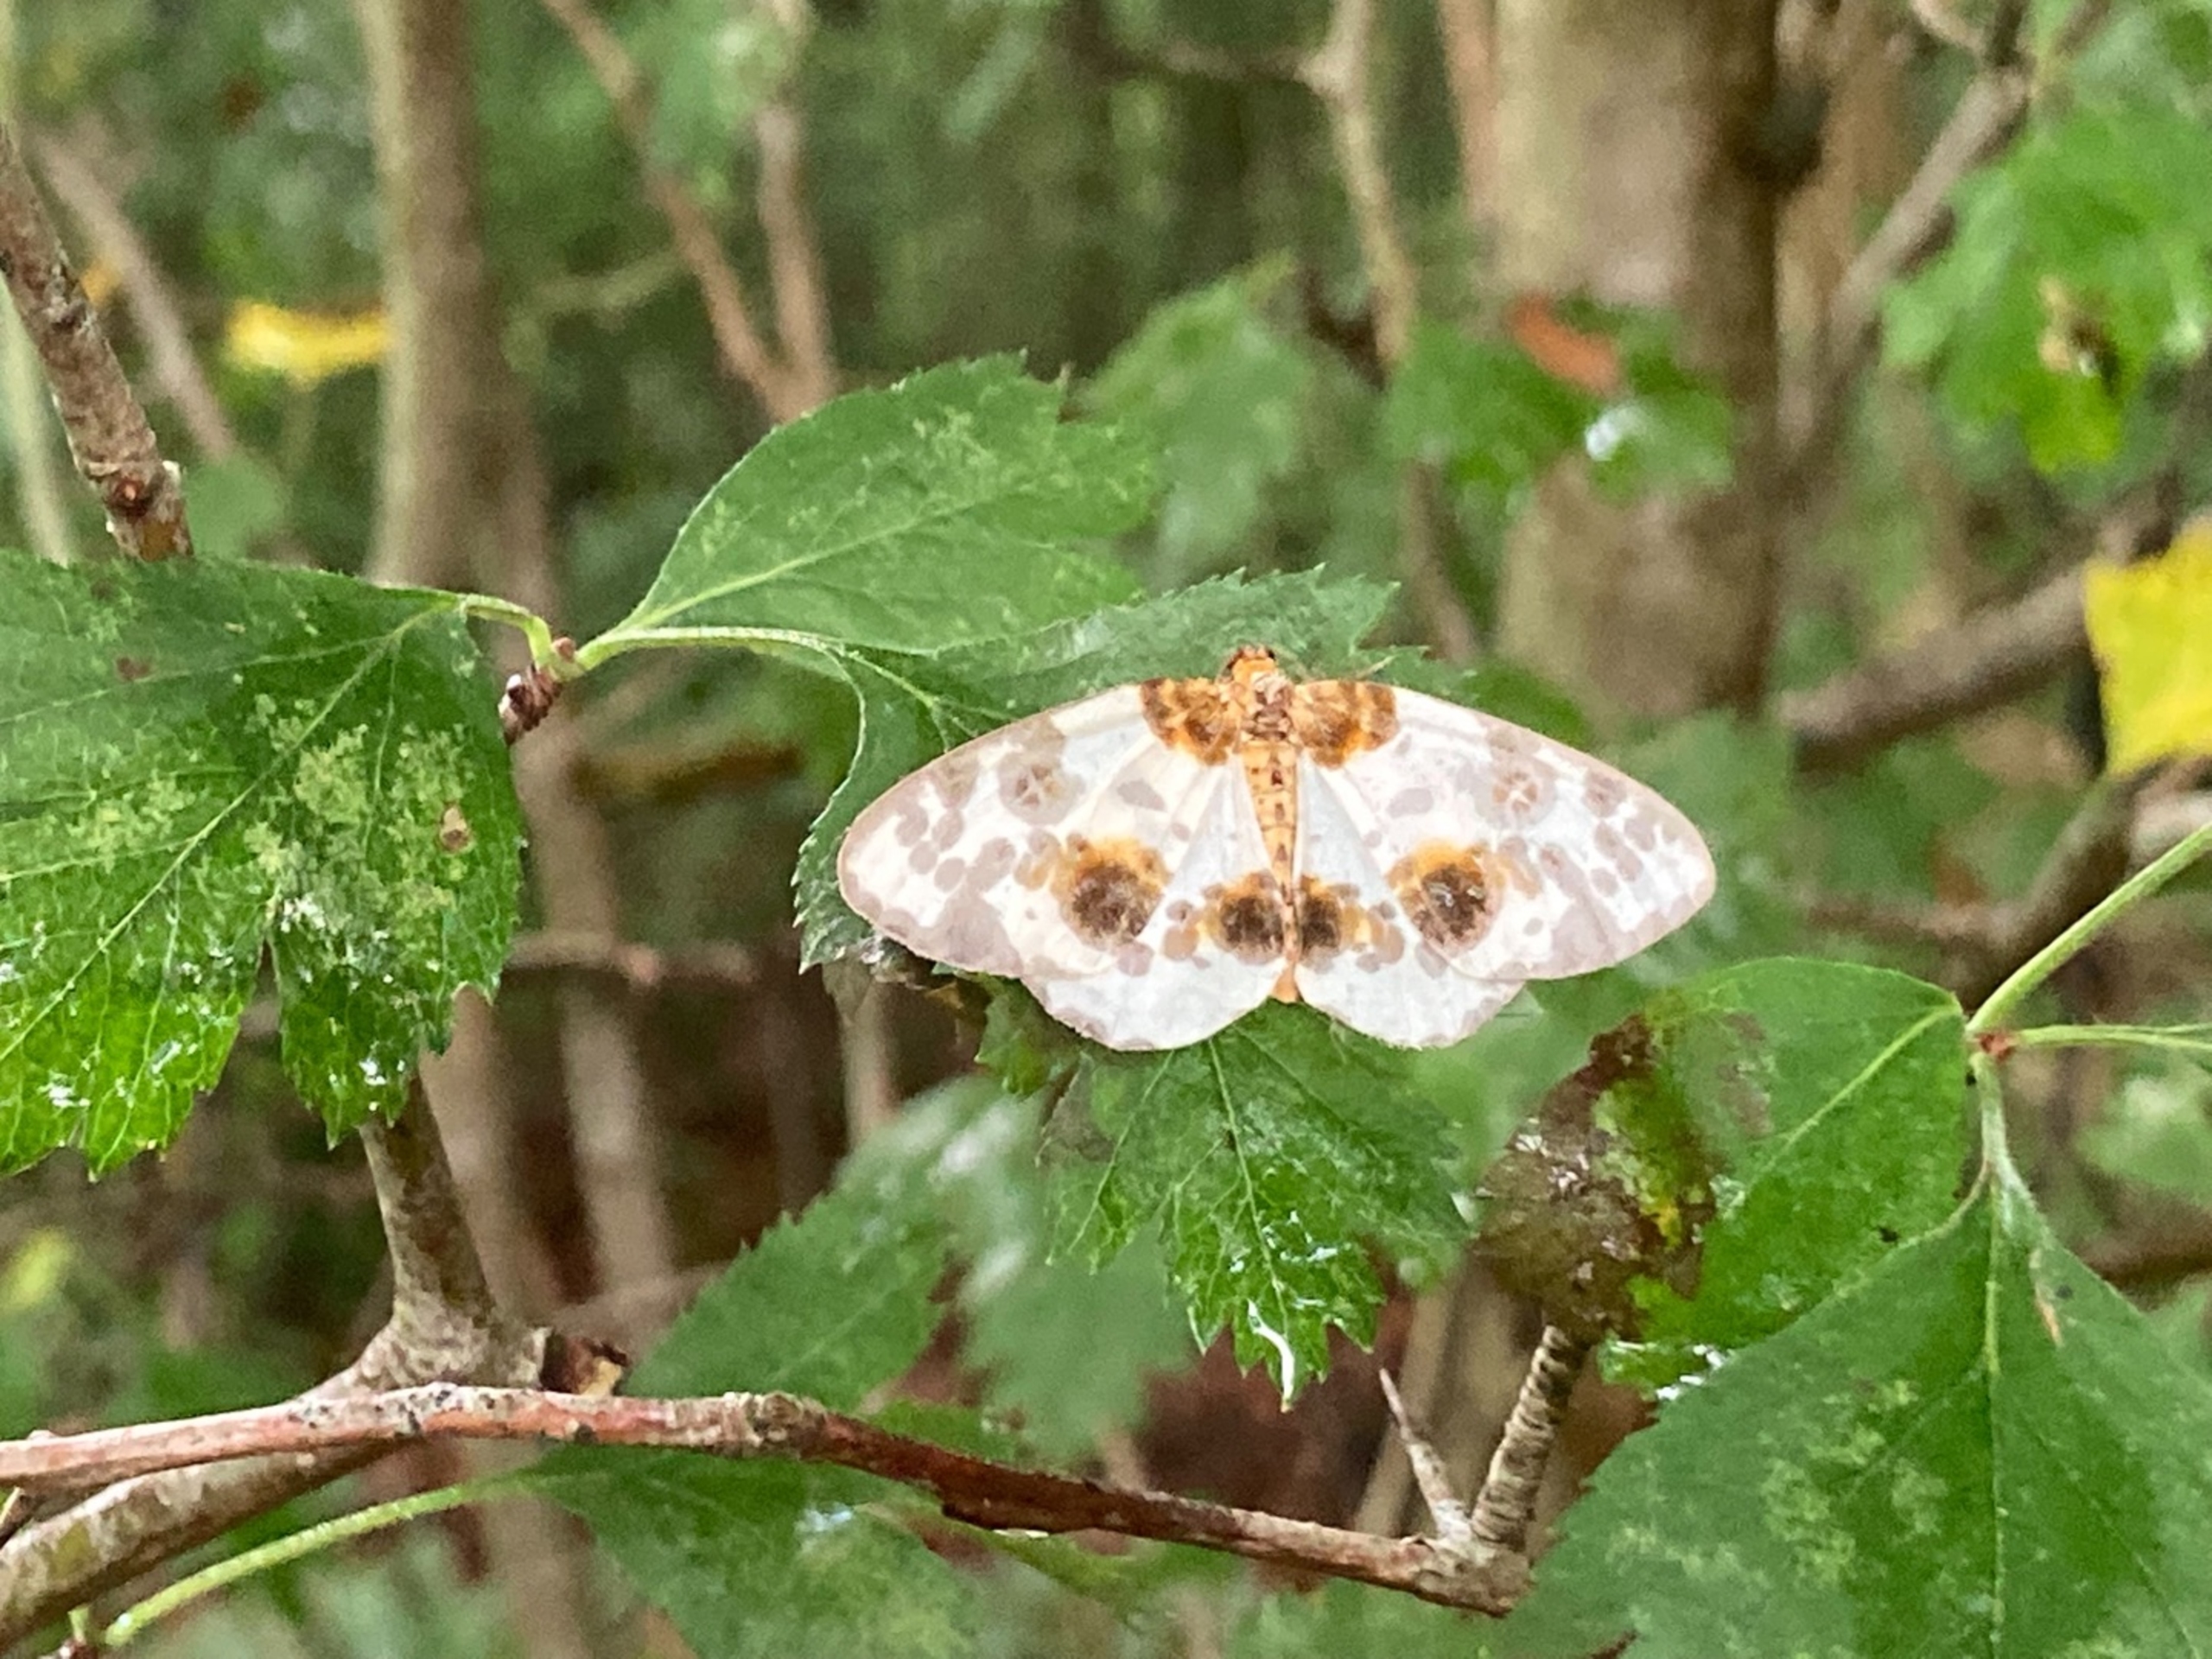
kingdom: Animalia
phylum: Arthropoda
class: Insecta
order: Lepidoptera
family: Geometridae
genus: Abraxas
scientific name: Abraxas sylvata
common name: Elmemåler
